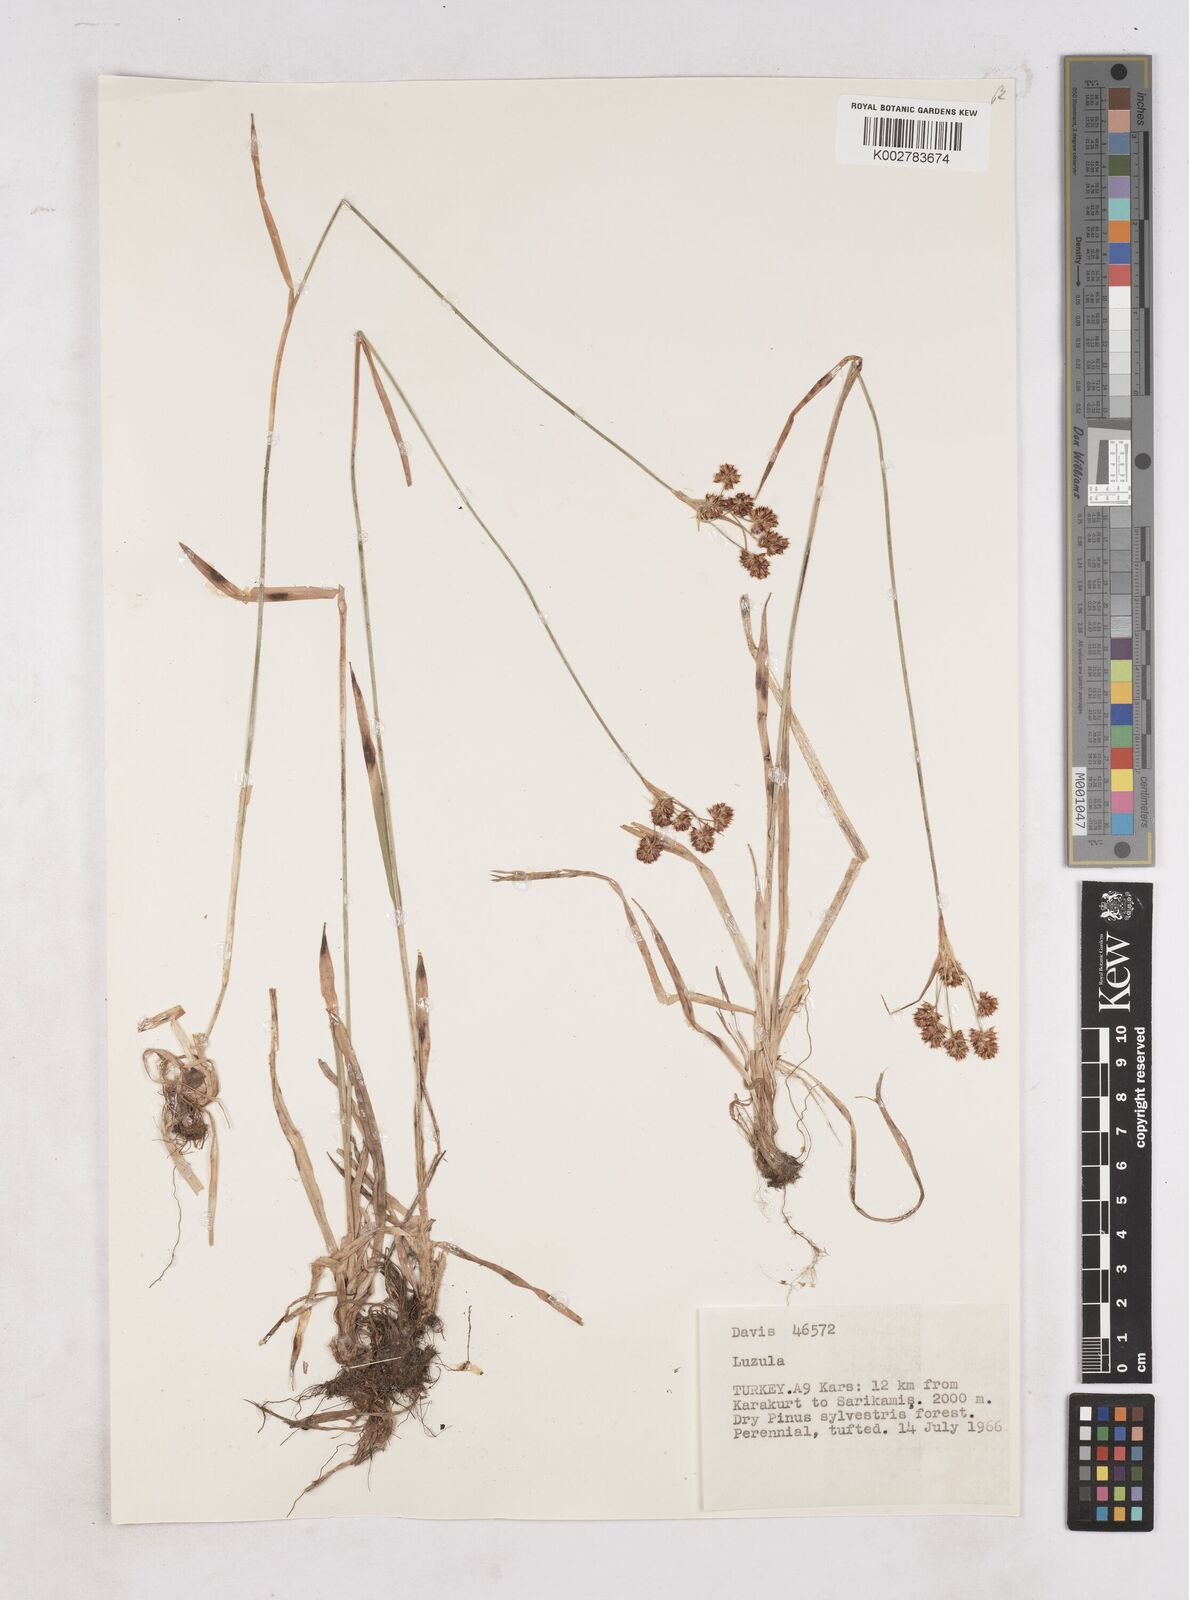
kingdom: Plantae
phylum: Tracheophyta
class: Liliopsida
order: Poales
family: Juncaceae
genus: Luzula
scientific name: Luzula
